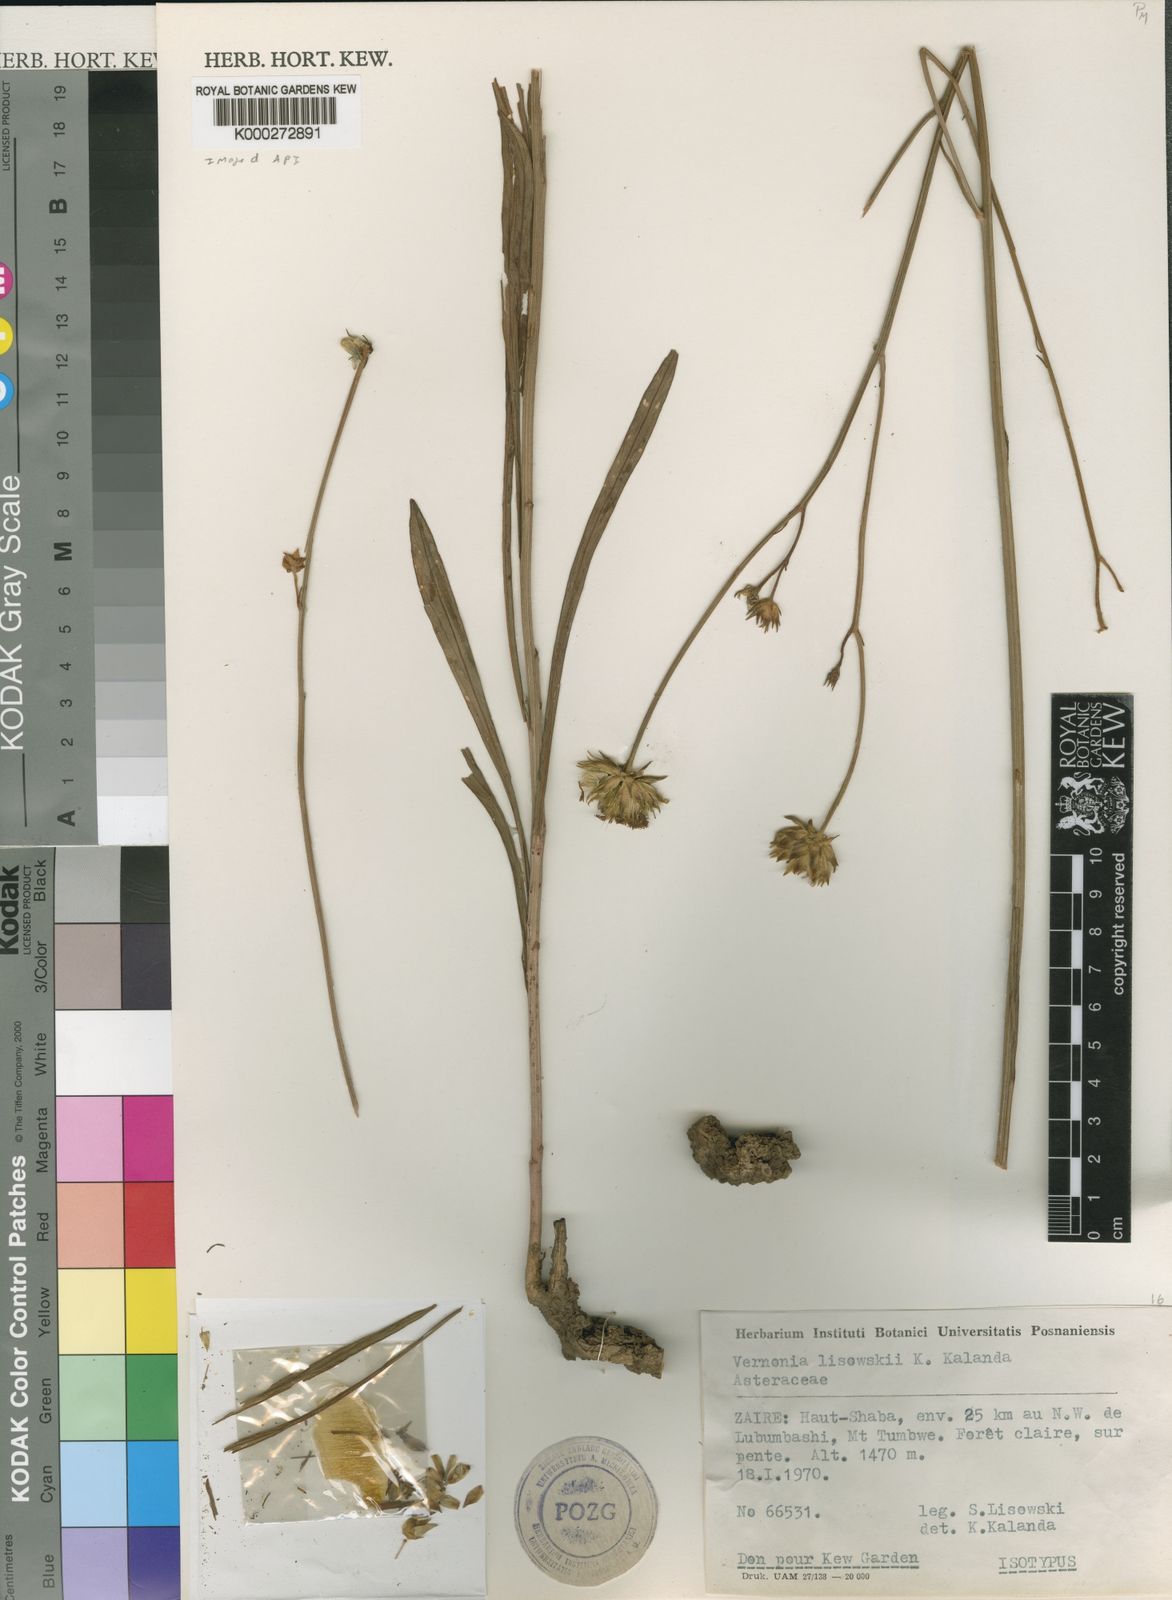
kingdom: Plantae
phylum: Tracheophyta
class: Magnoliopsida
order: Asterales
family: Asteraceae
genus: Vernonia
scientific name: Vernonia lisowskii
